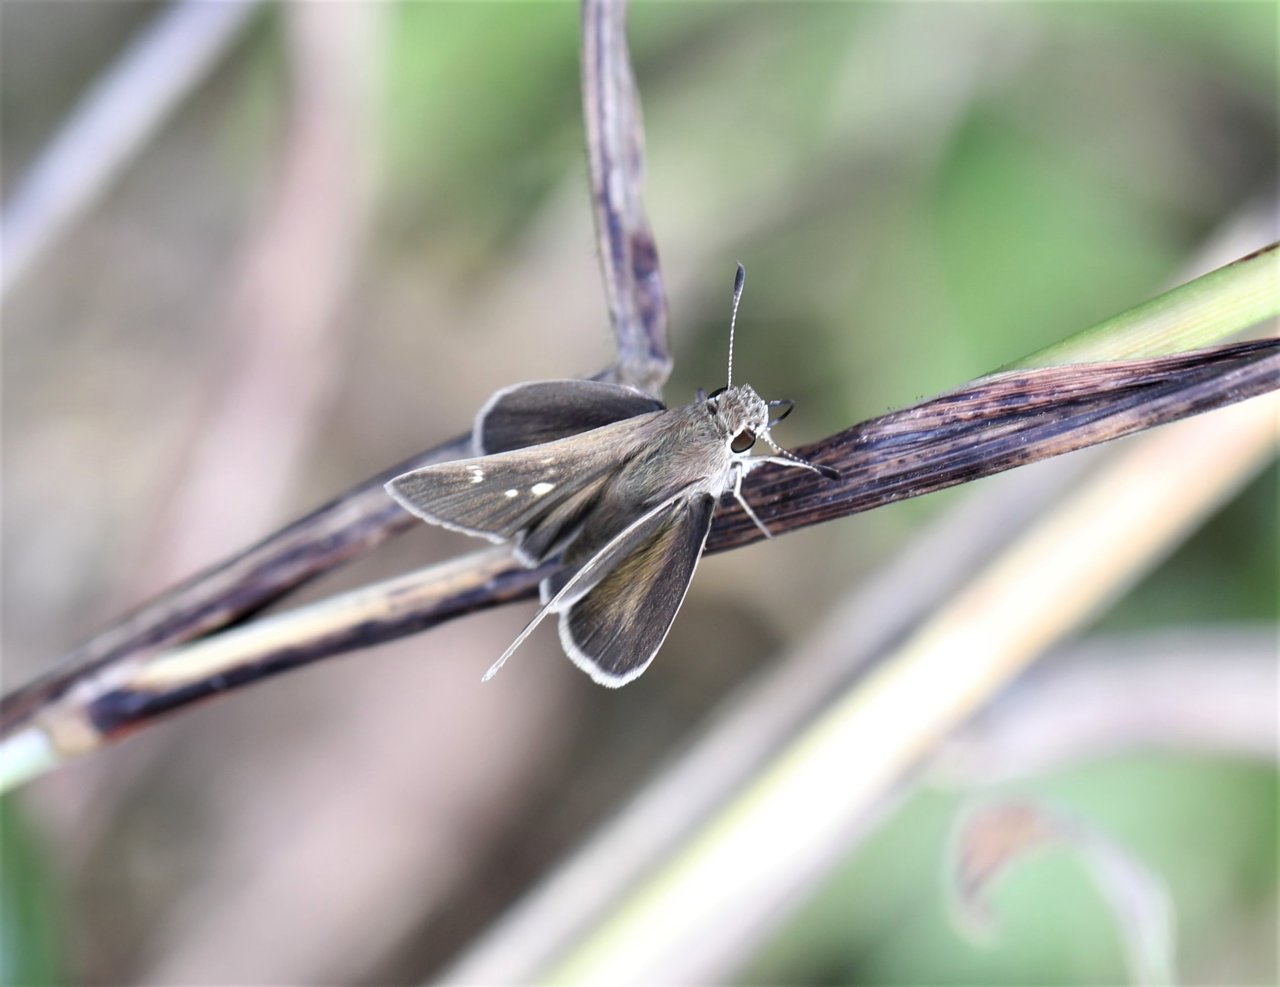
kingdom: Animalia
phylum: Arthropoda
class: Insecta
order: Lepidoptera
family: Hesperiidae
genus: Lerodea
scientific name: Lerodea eufala
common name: Eufala Skipper
